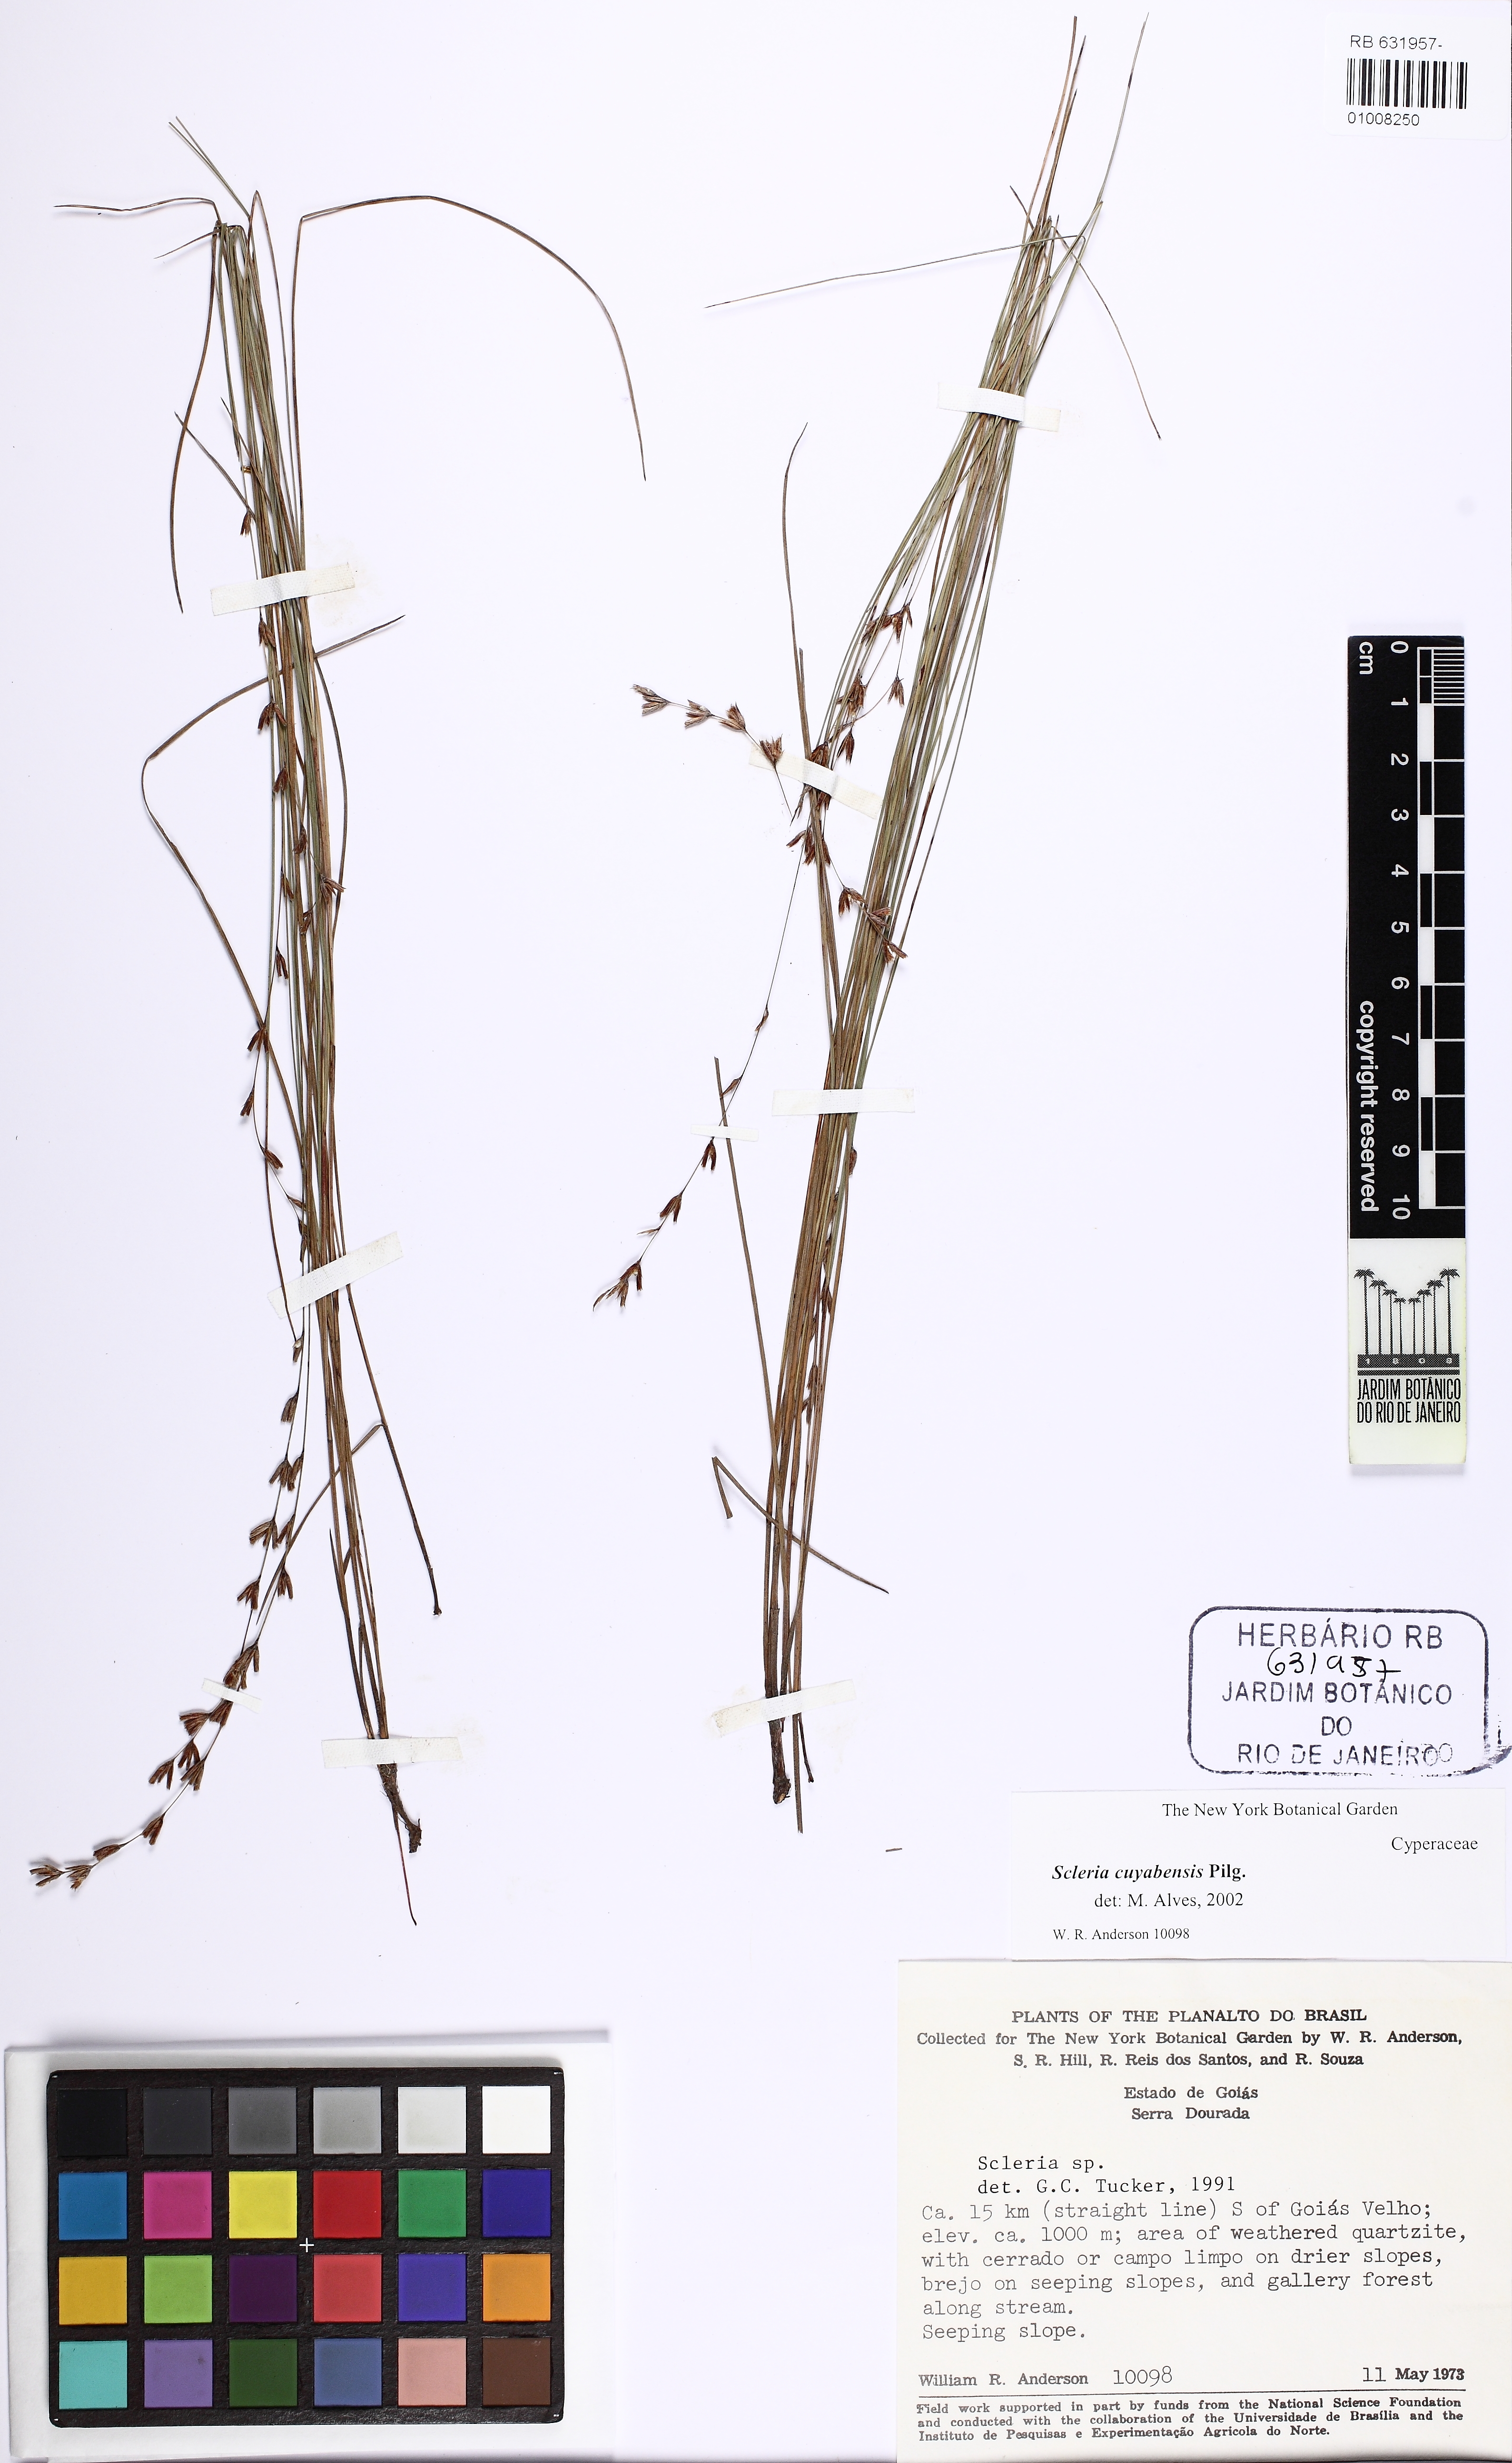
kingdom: Plantae
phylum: Tracheophyta
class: Liliopsida
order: Poales
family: Cyperaceae
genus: Scleria
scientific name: Scleria cuyabensis
